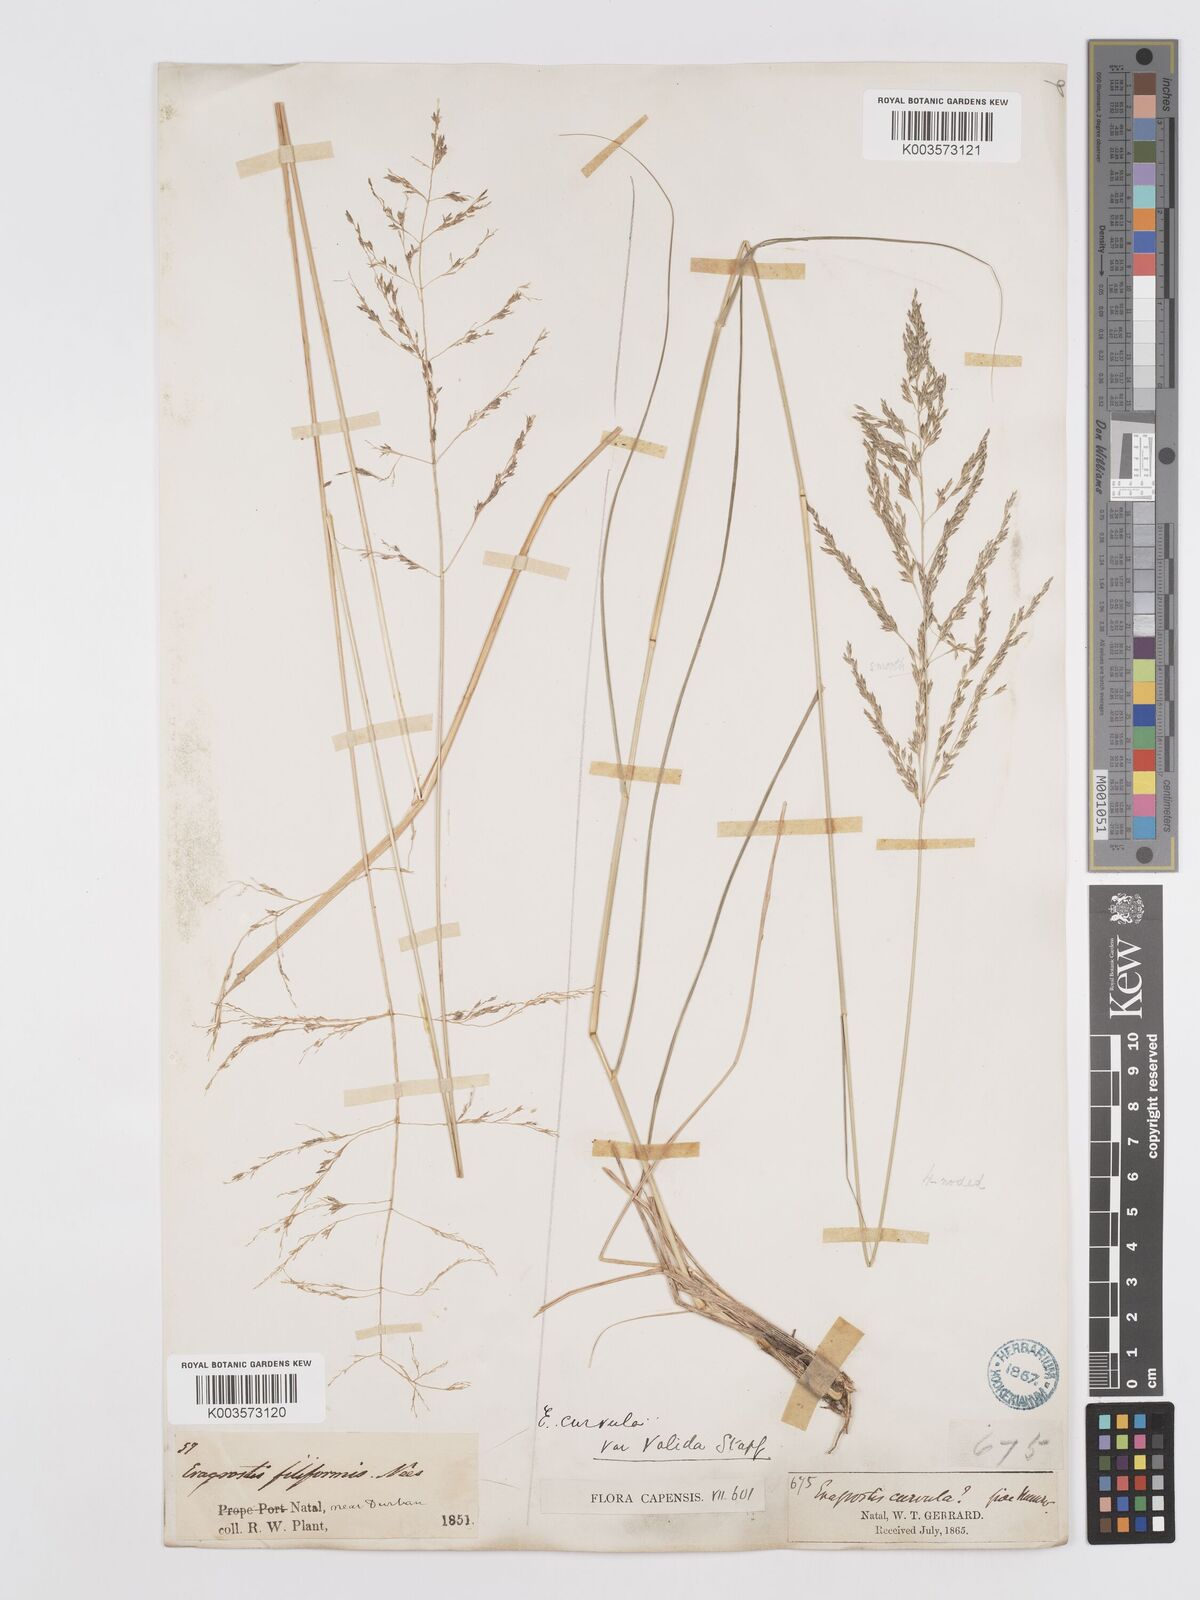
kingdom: Plantae
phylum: Tracheophyta
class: Liliopsida
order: Poales
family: Poaceae
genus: Eragrostis
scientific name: Eragrostis curvula
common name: African love-grass
